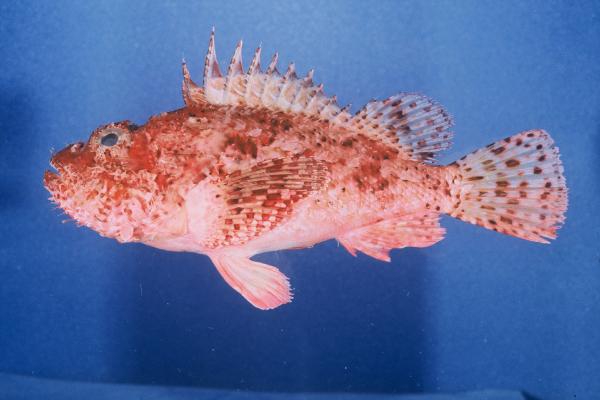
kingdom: Animalia
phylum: Chordata
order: Scorpaeniformes
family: Scorpaenidae
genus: Scorpaena
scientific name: Scorpaena scrofa
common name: Red scorpionfish
